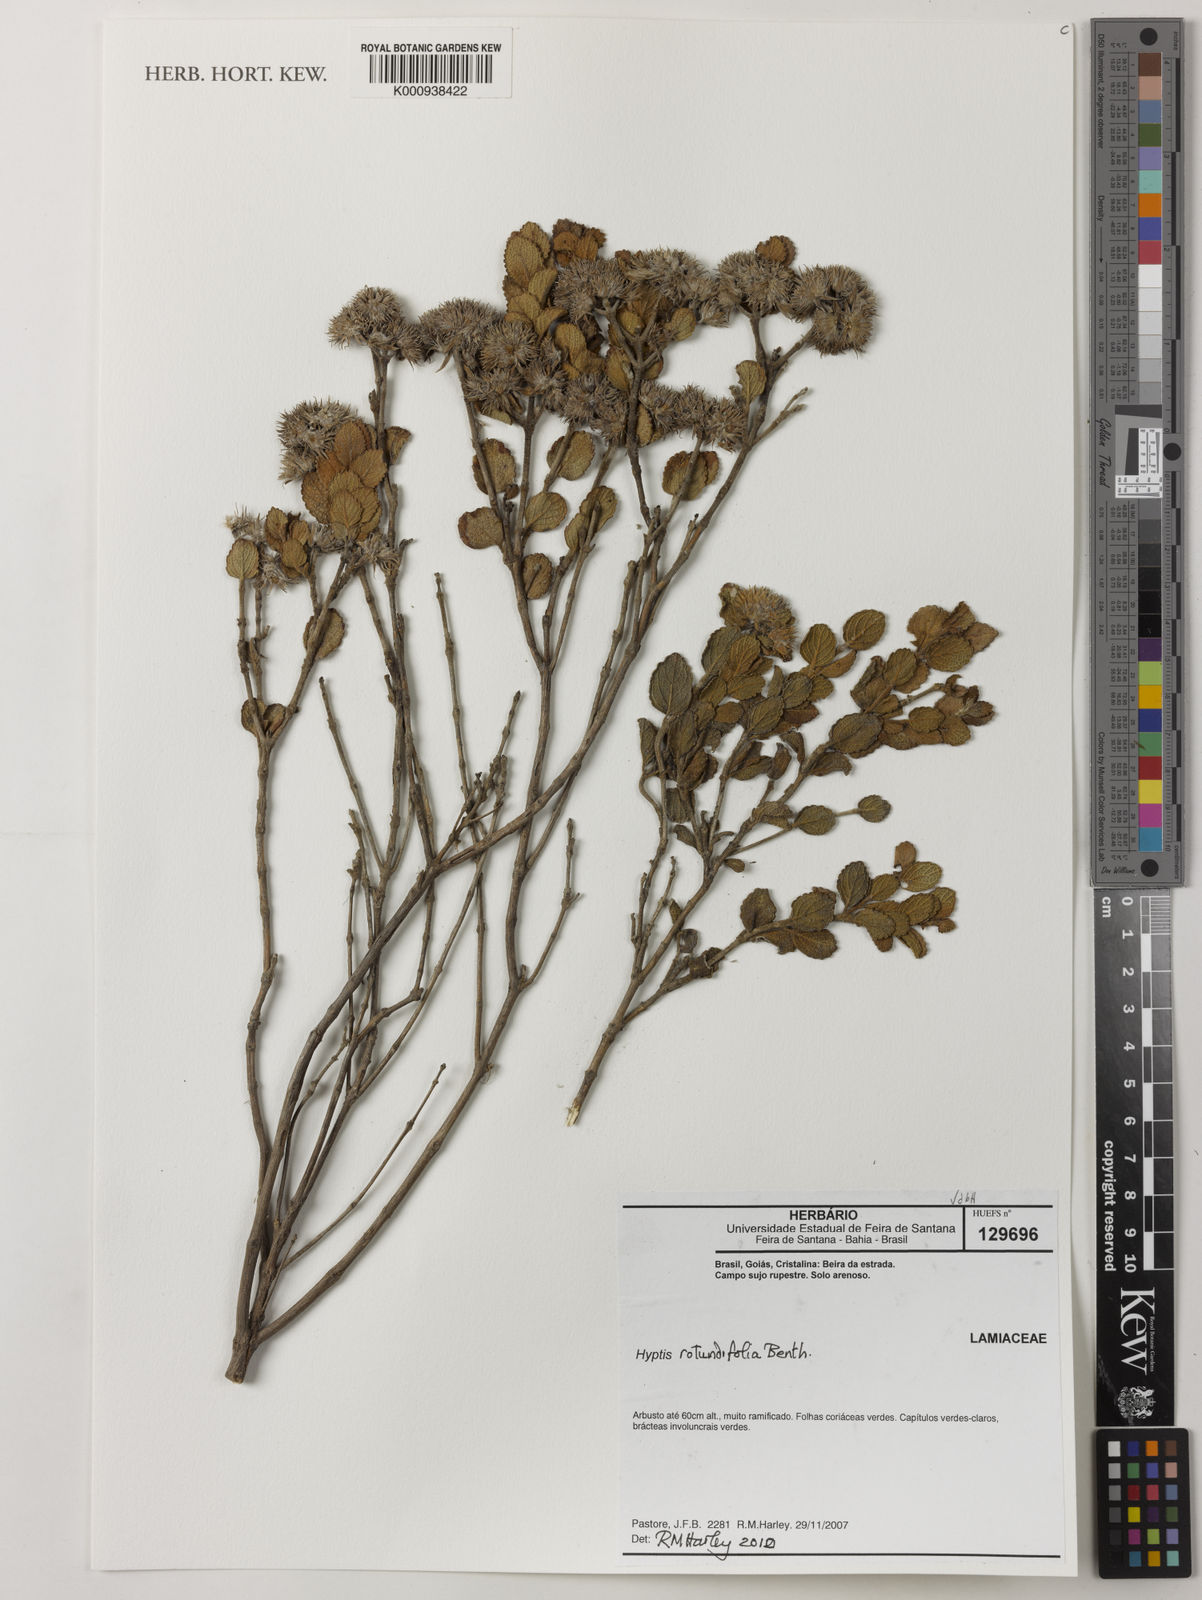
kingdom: Plantae
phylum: Tracheophyta
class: Magnoliopsida
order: Lamiales
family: Lamiaceae
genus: Hyptis
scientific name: Hyptis rotundifolia
